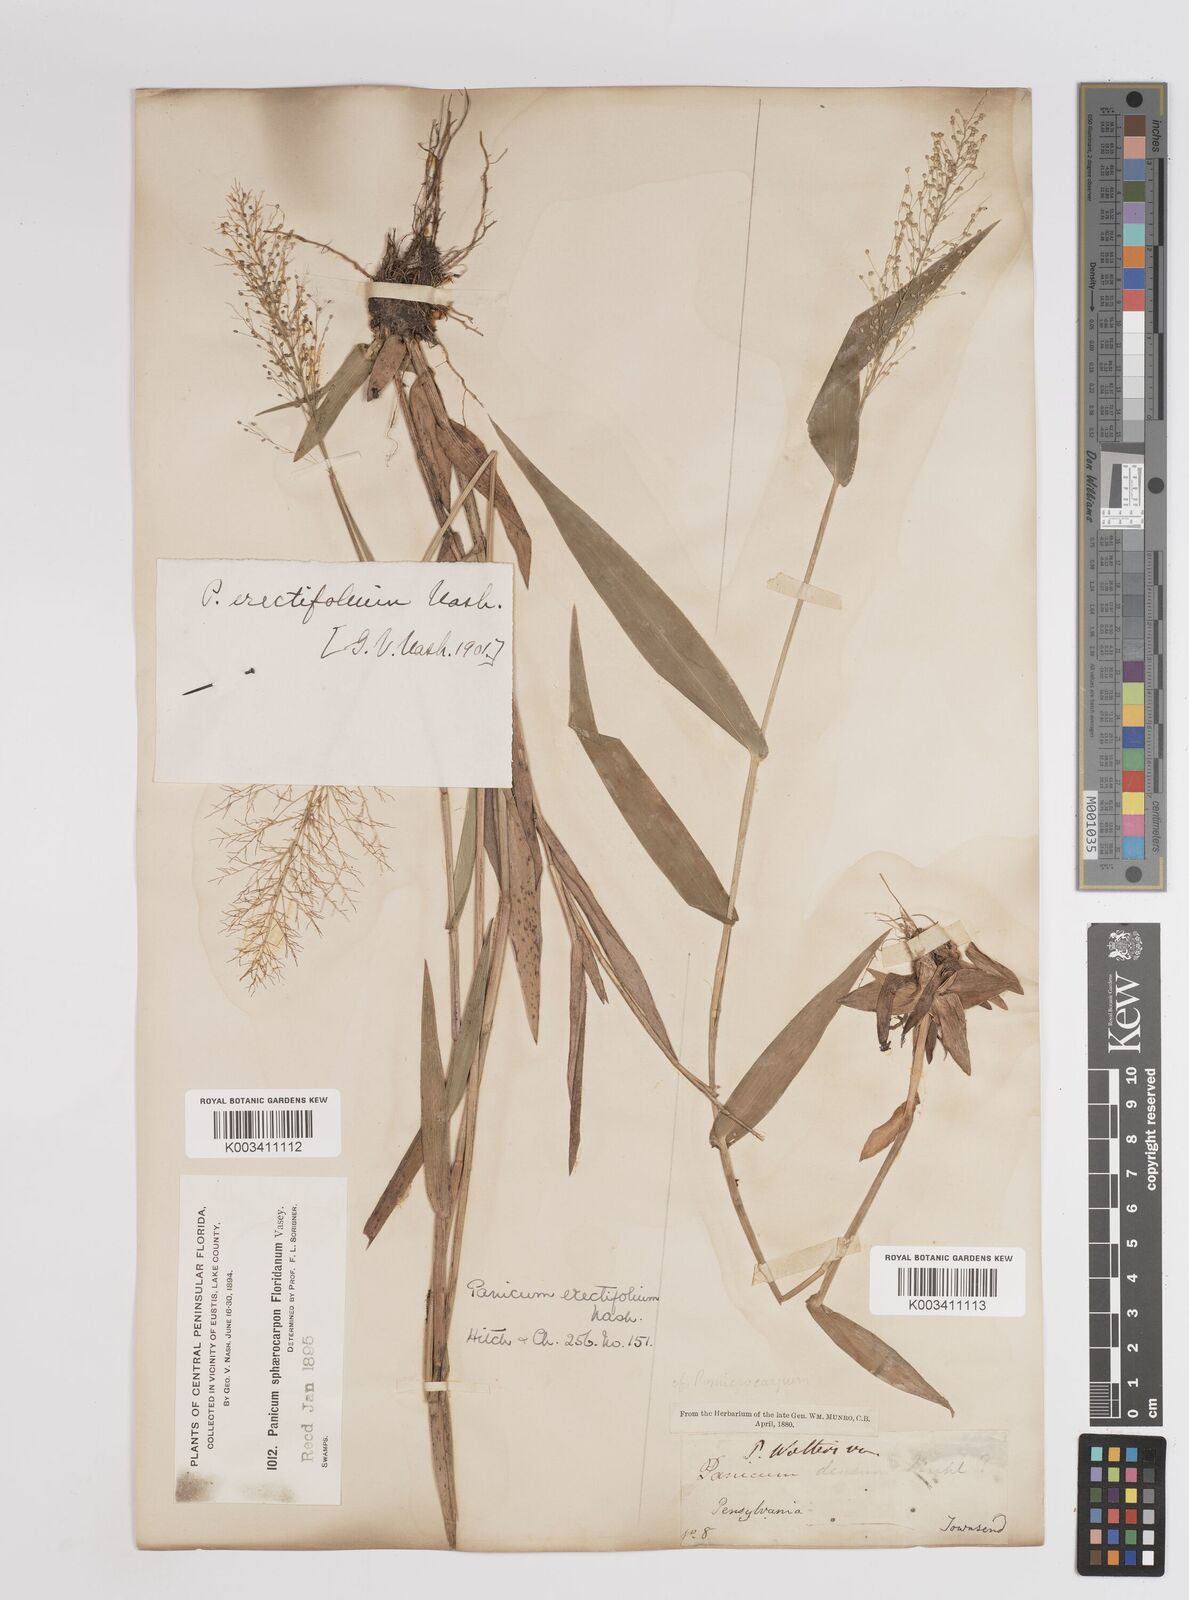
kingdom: Plantae
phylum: Tracheophyta
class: Liliopsida
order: Poales
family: Poaceae
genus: Dichanthelium
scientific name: Dichanthelium erectifolium
